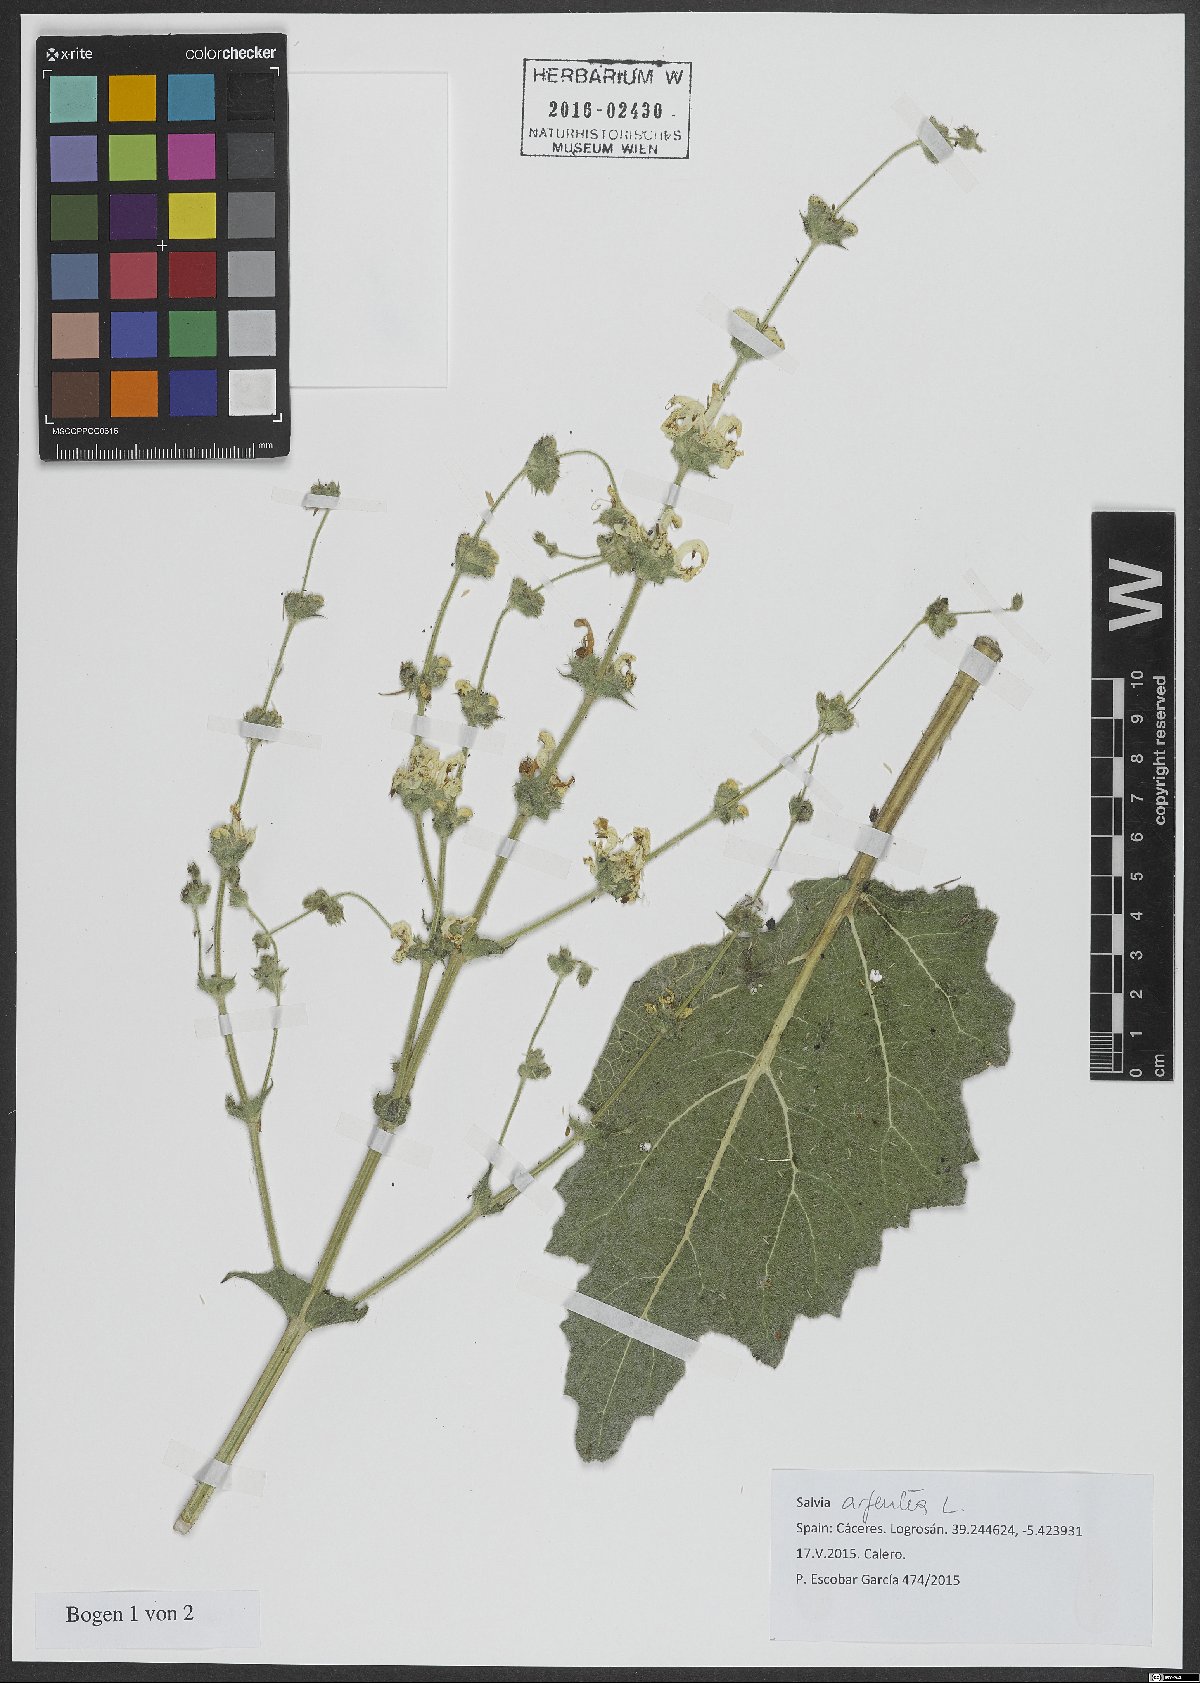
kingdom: Plantae
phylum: Tracheophyta
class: Magnoliopsida
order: Lamiales
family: Lamiaceae
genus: Salvia
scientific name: Salvia argentea
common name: Silver sage
